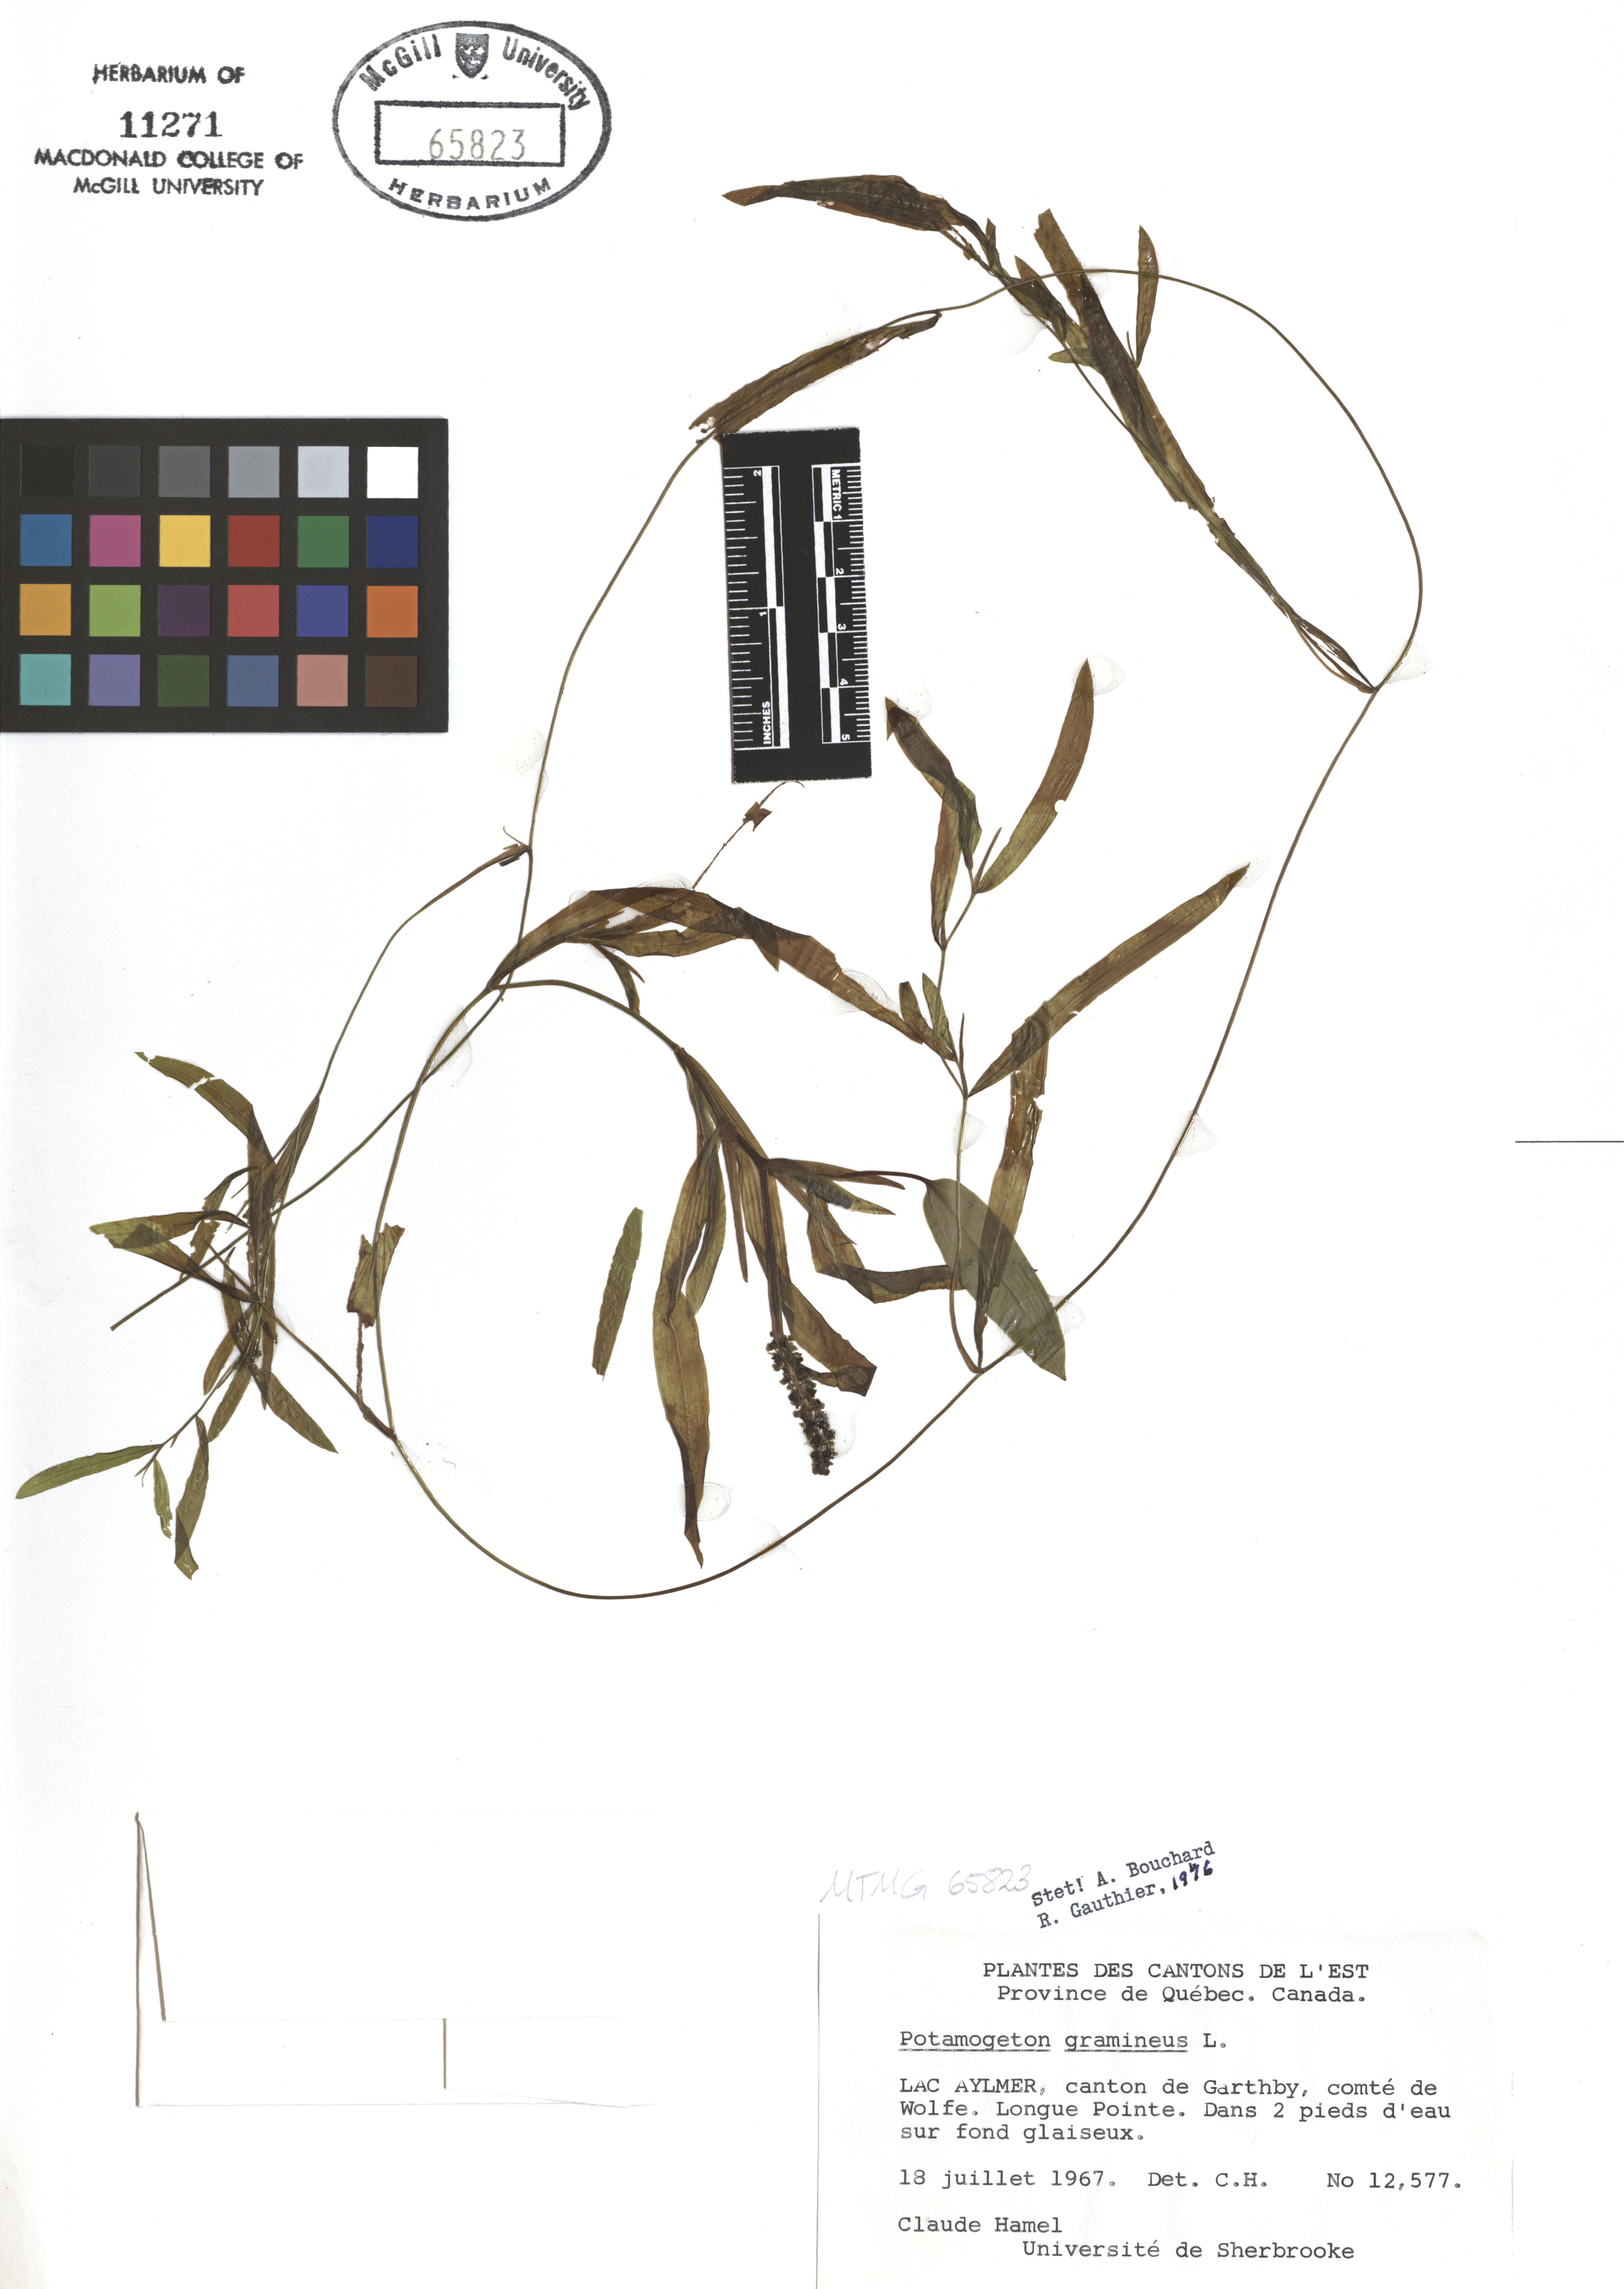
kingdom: Plantae
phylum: Tracheophyta
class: Liliopsida
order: Alismatales
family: Potamogetonaceae
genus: Potamogeton
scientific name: Potamogeton gramineus
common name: Various-leaved pondweed
